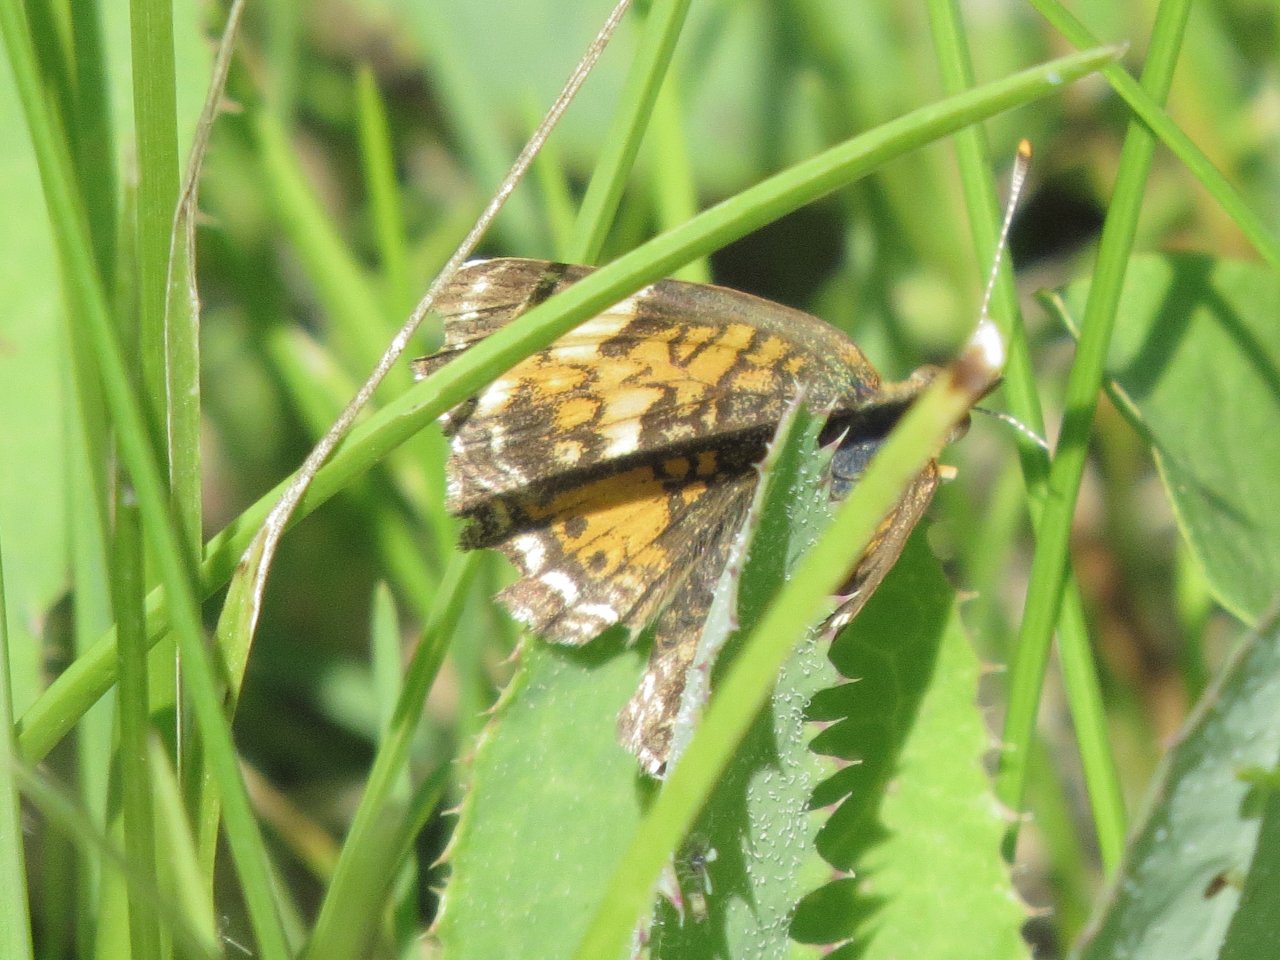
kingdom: Animalia
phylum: Arthropoda
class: Insecta
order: Lepidoptera
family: Nymphalidae
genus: Phyciodes
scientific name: Phyciodes tharos
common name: Northern Crescent
